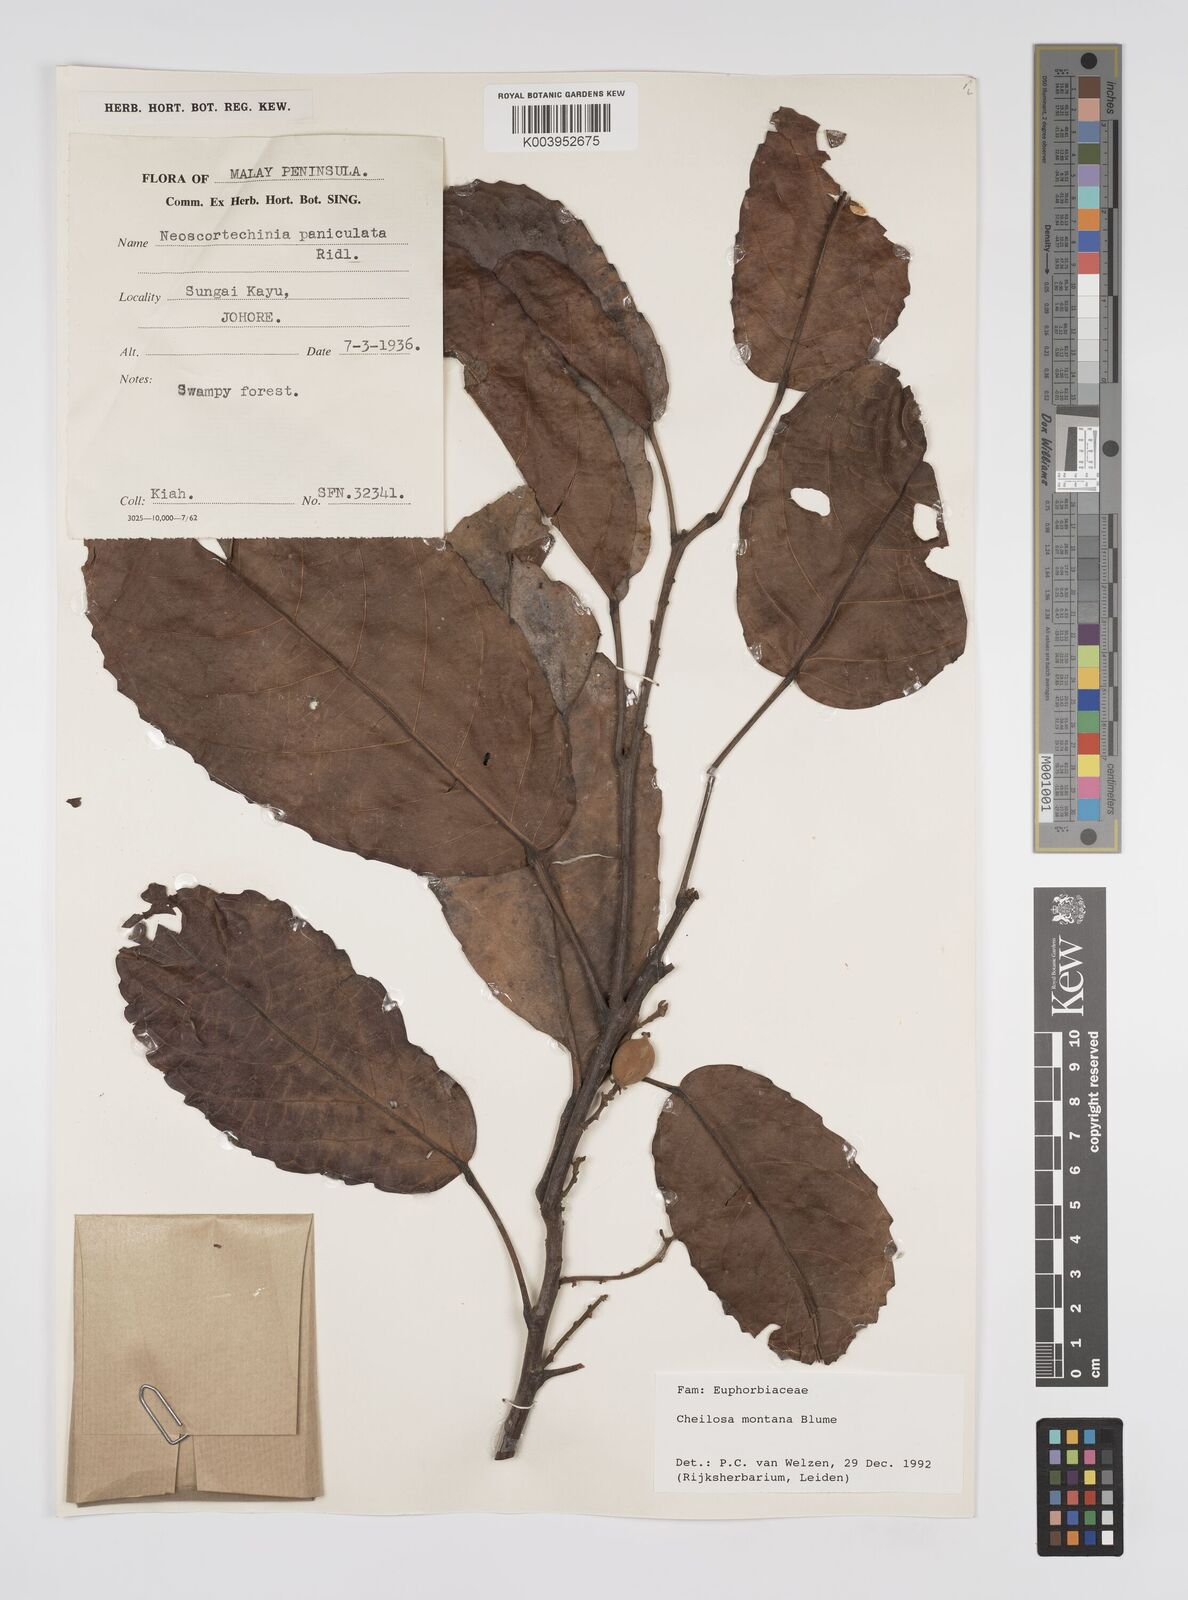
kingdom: Plantae
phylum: Tracheophyta
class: Magnoliopsida
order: Malpighiales
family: Euphorbiaceae
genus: Cheilosa
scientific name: Cheilosa montana
